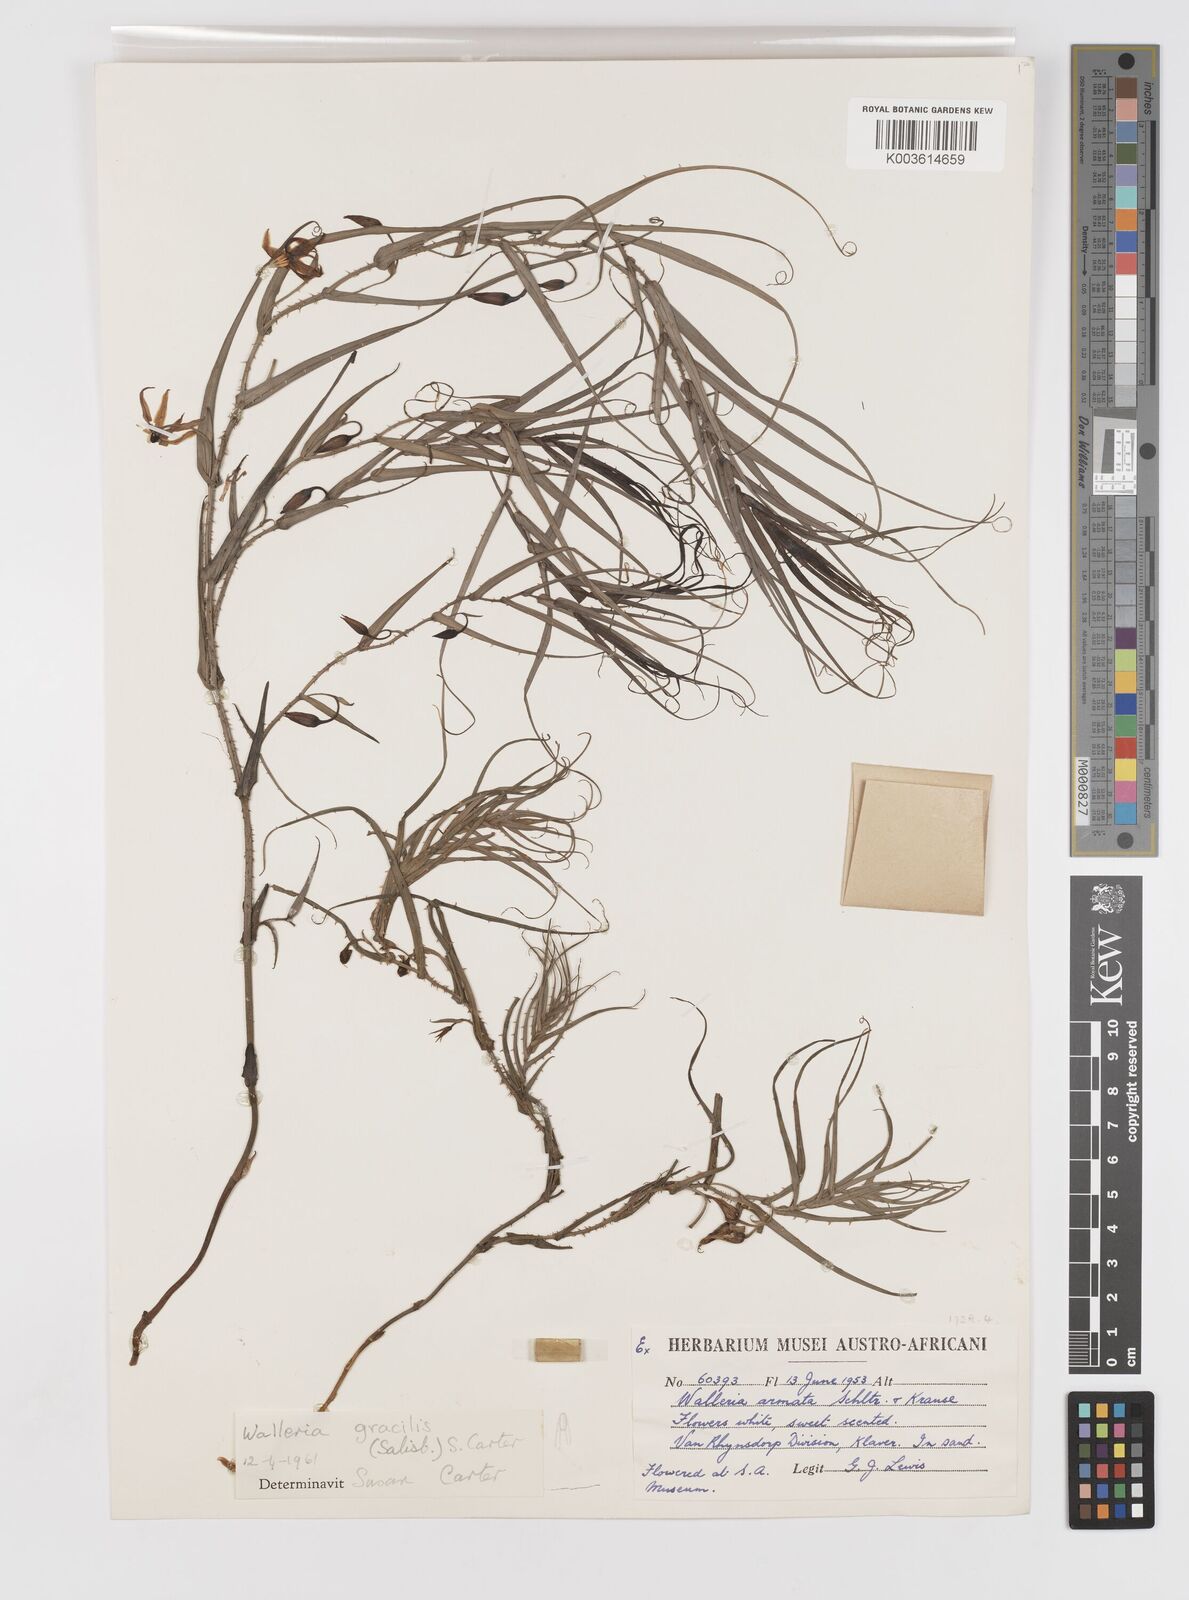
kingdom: Plantae
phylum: Tracheophyta
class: Liliopsida
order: Asparagales
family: Tecophilaeaceae
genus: Walleria
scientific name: Walleria gracilis
